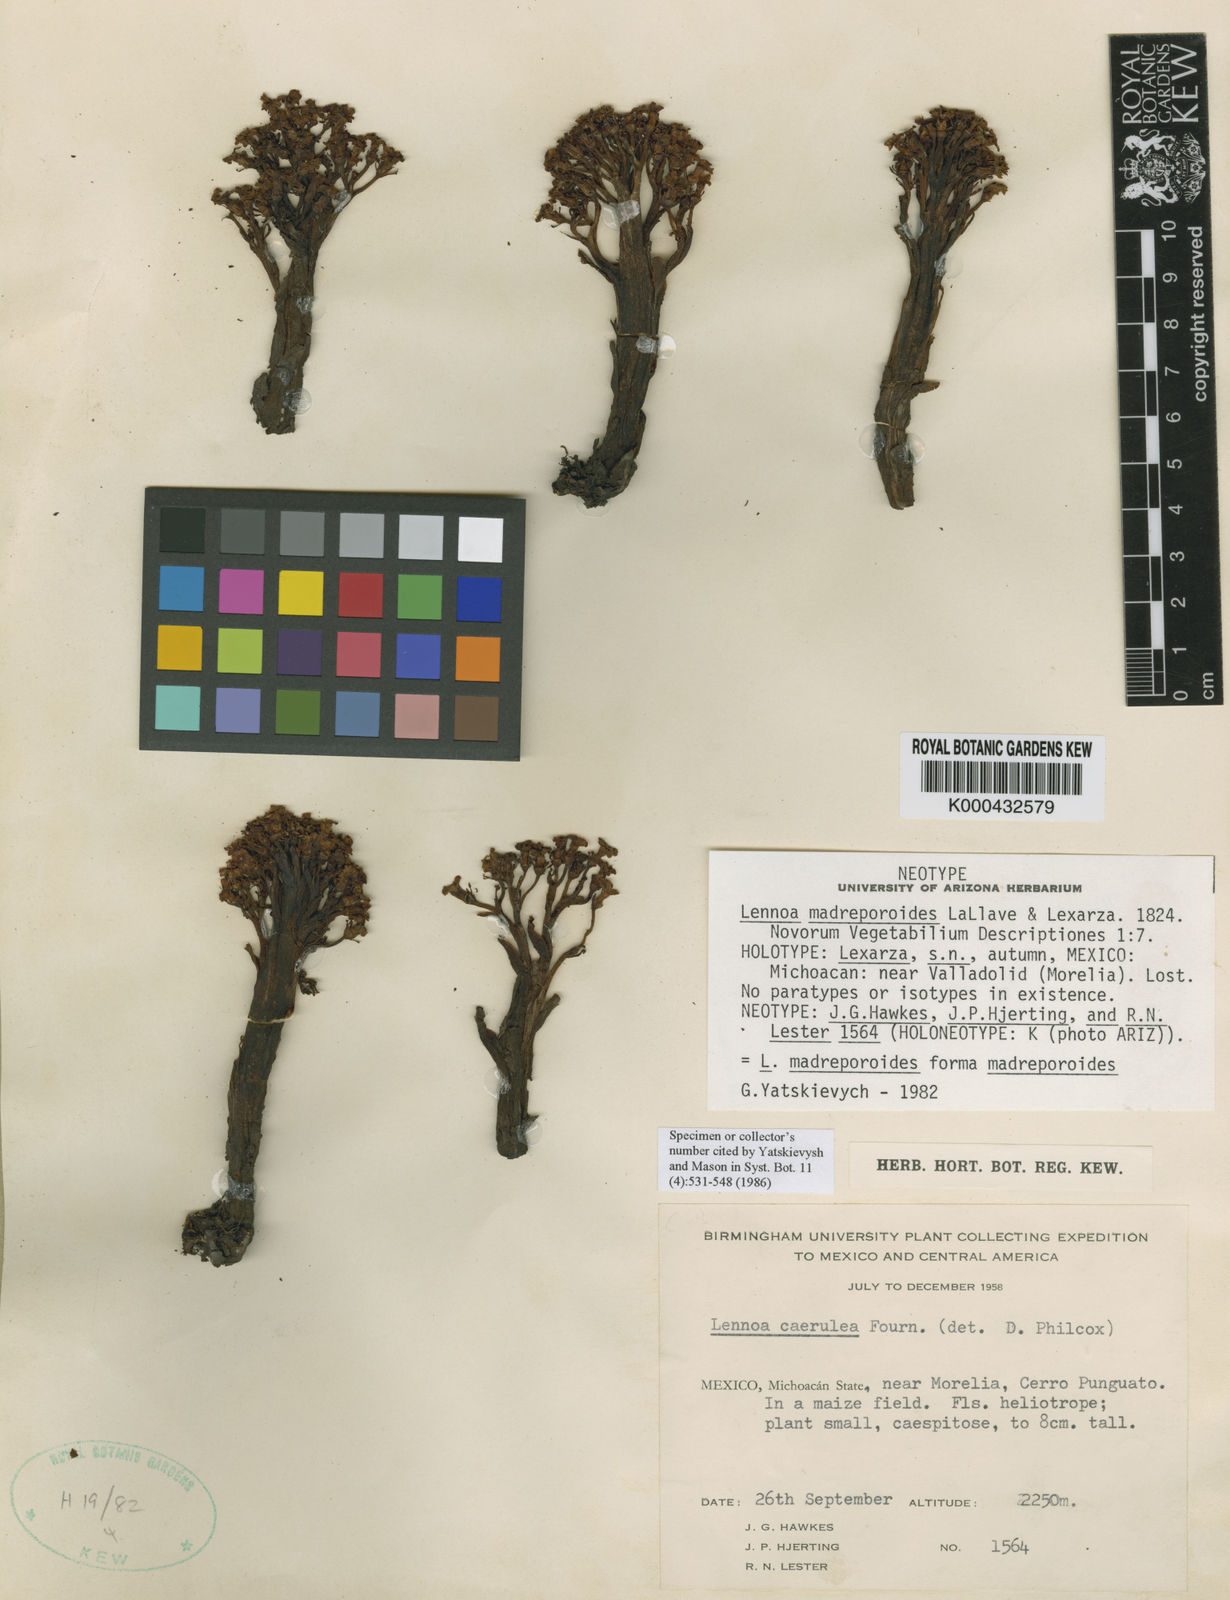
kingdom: Plantae
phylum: Tracheophyta
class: Magnoliopsida
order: Boraginales
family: Lennoaceae
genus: Lennoa
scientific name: Lennoa madreporoides
